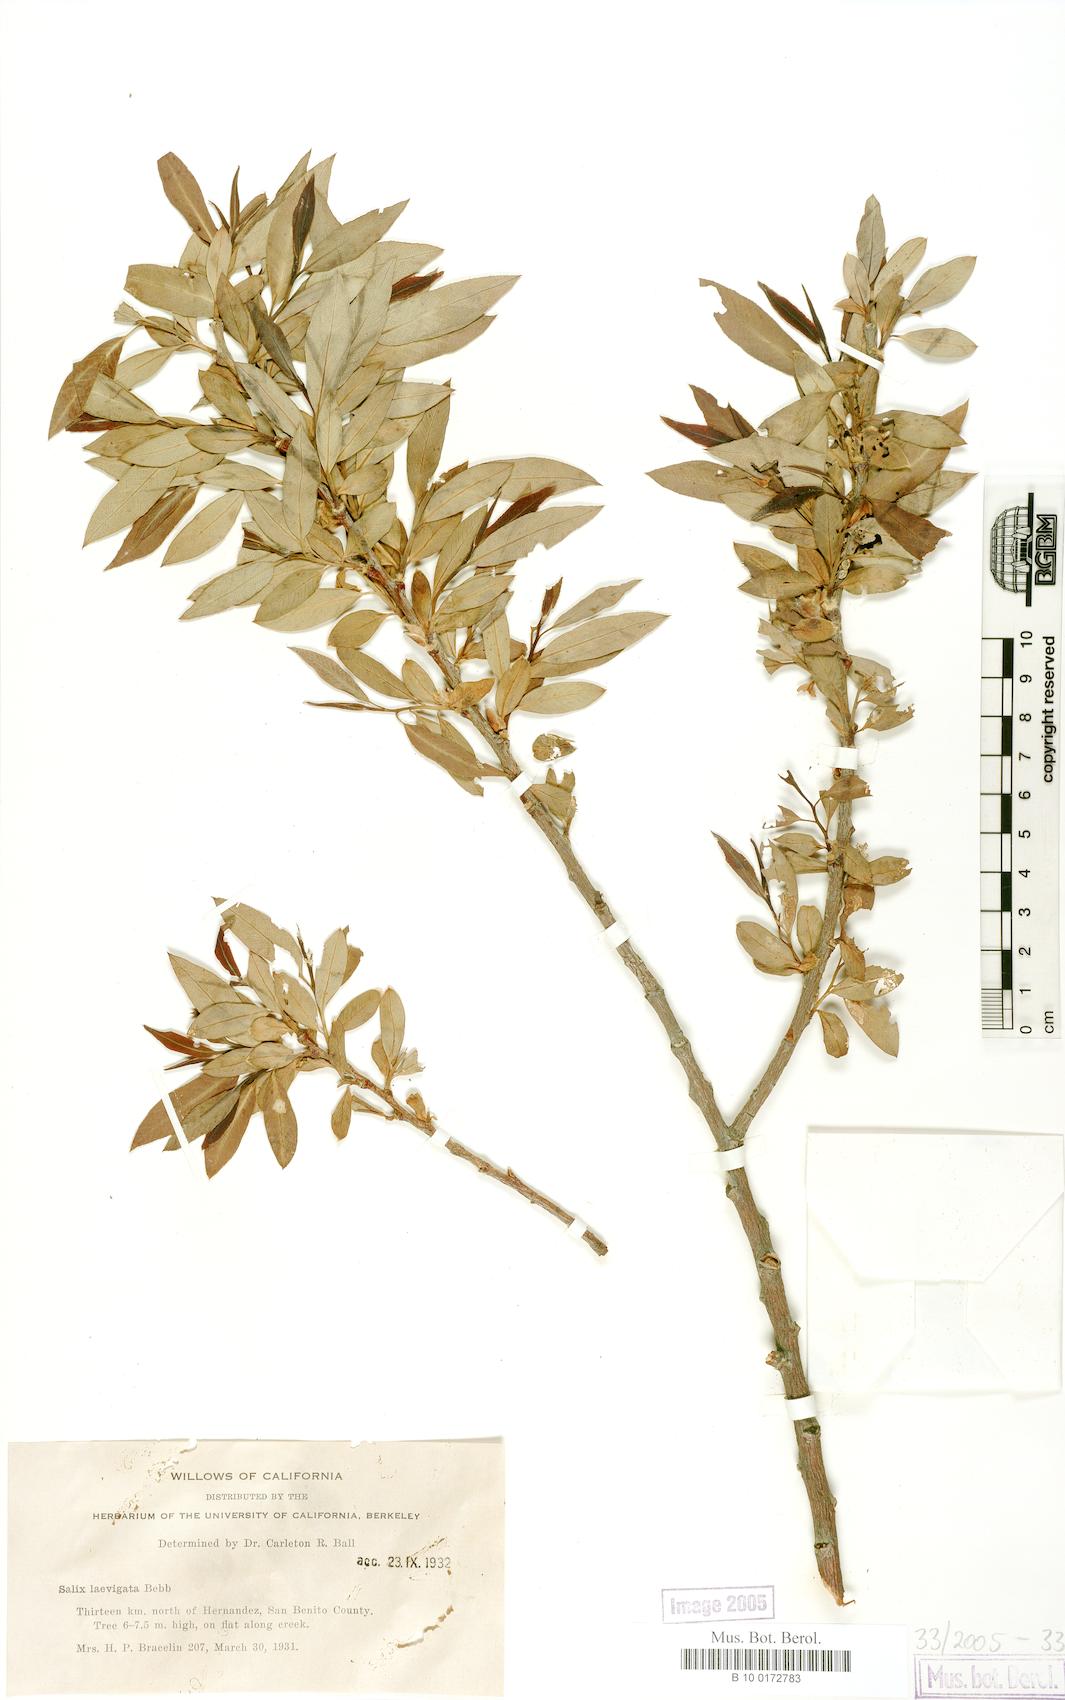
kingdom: Plantae
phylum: Tracheophyta
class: Magnoliopsida
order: Malpighiales
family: Salicaceae
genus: Salix
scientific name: Salix laevigata
